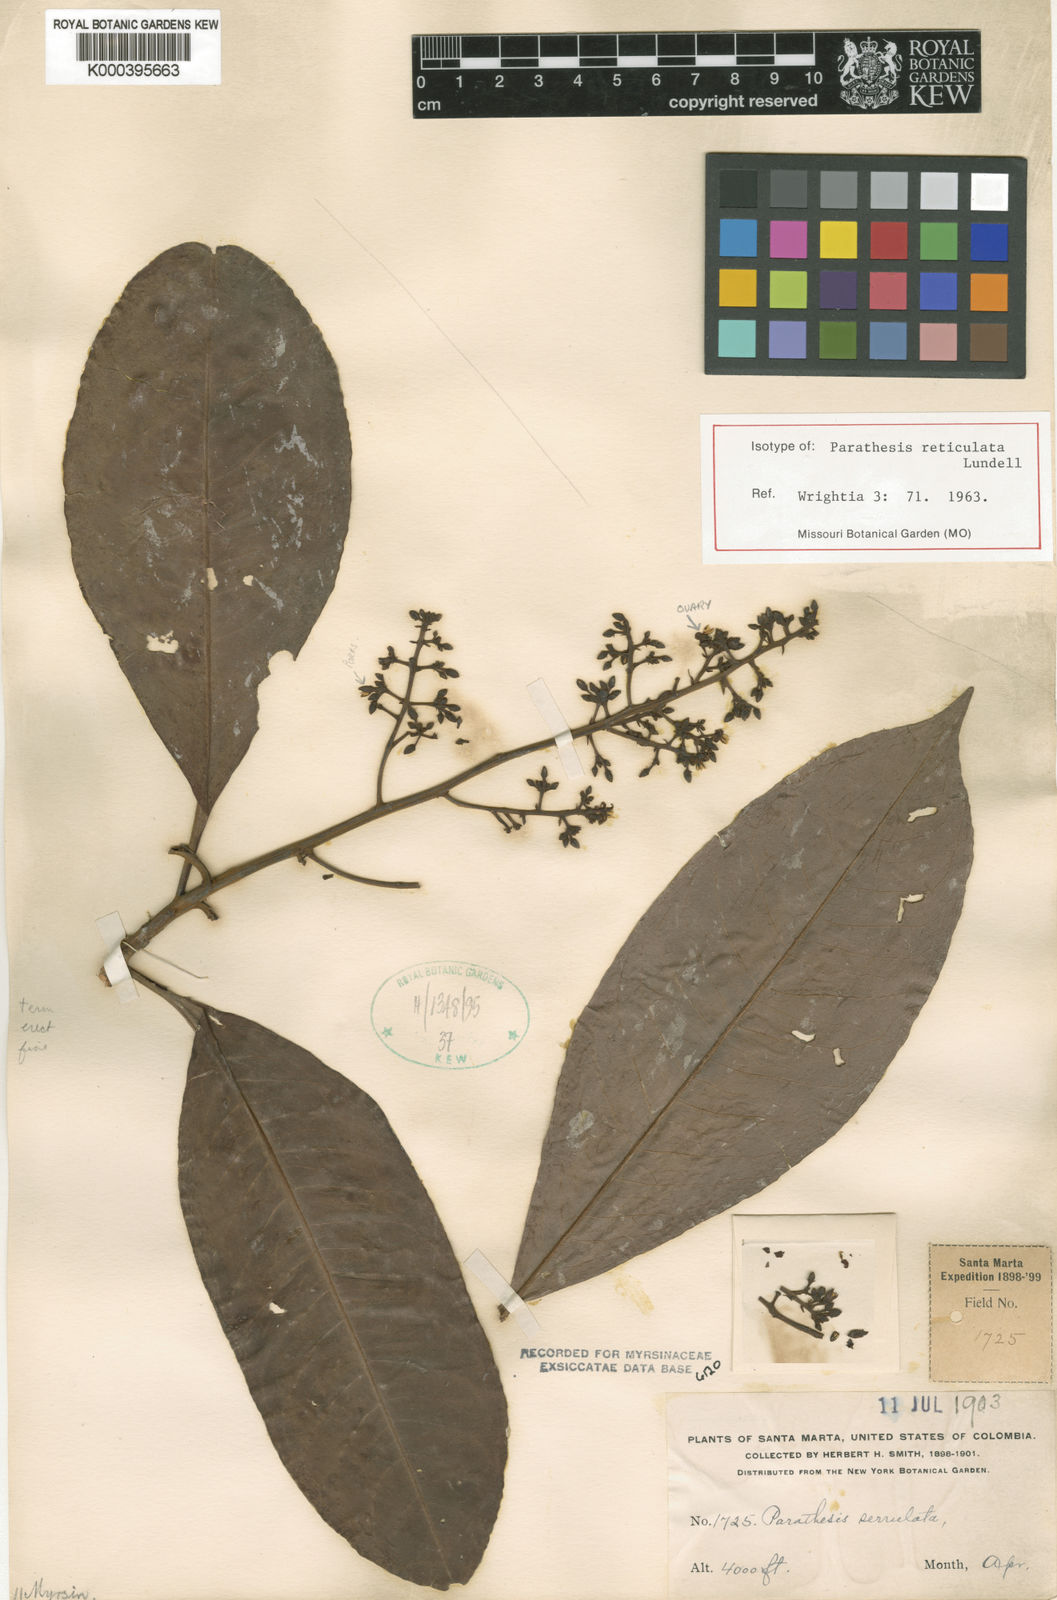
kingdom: Plantae
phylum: Tracheophyta
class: Magnoliopsida
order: Ericales
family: Primulaceae
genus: Parathesis
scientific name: Parathesis reticulata
